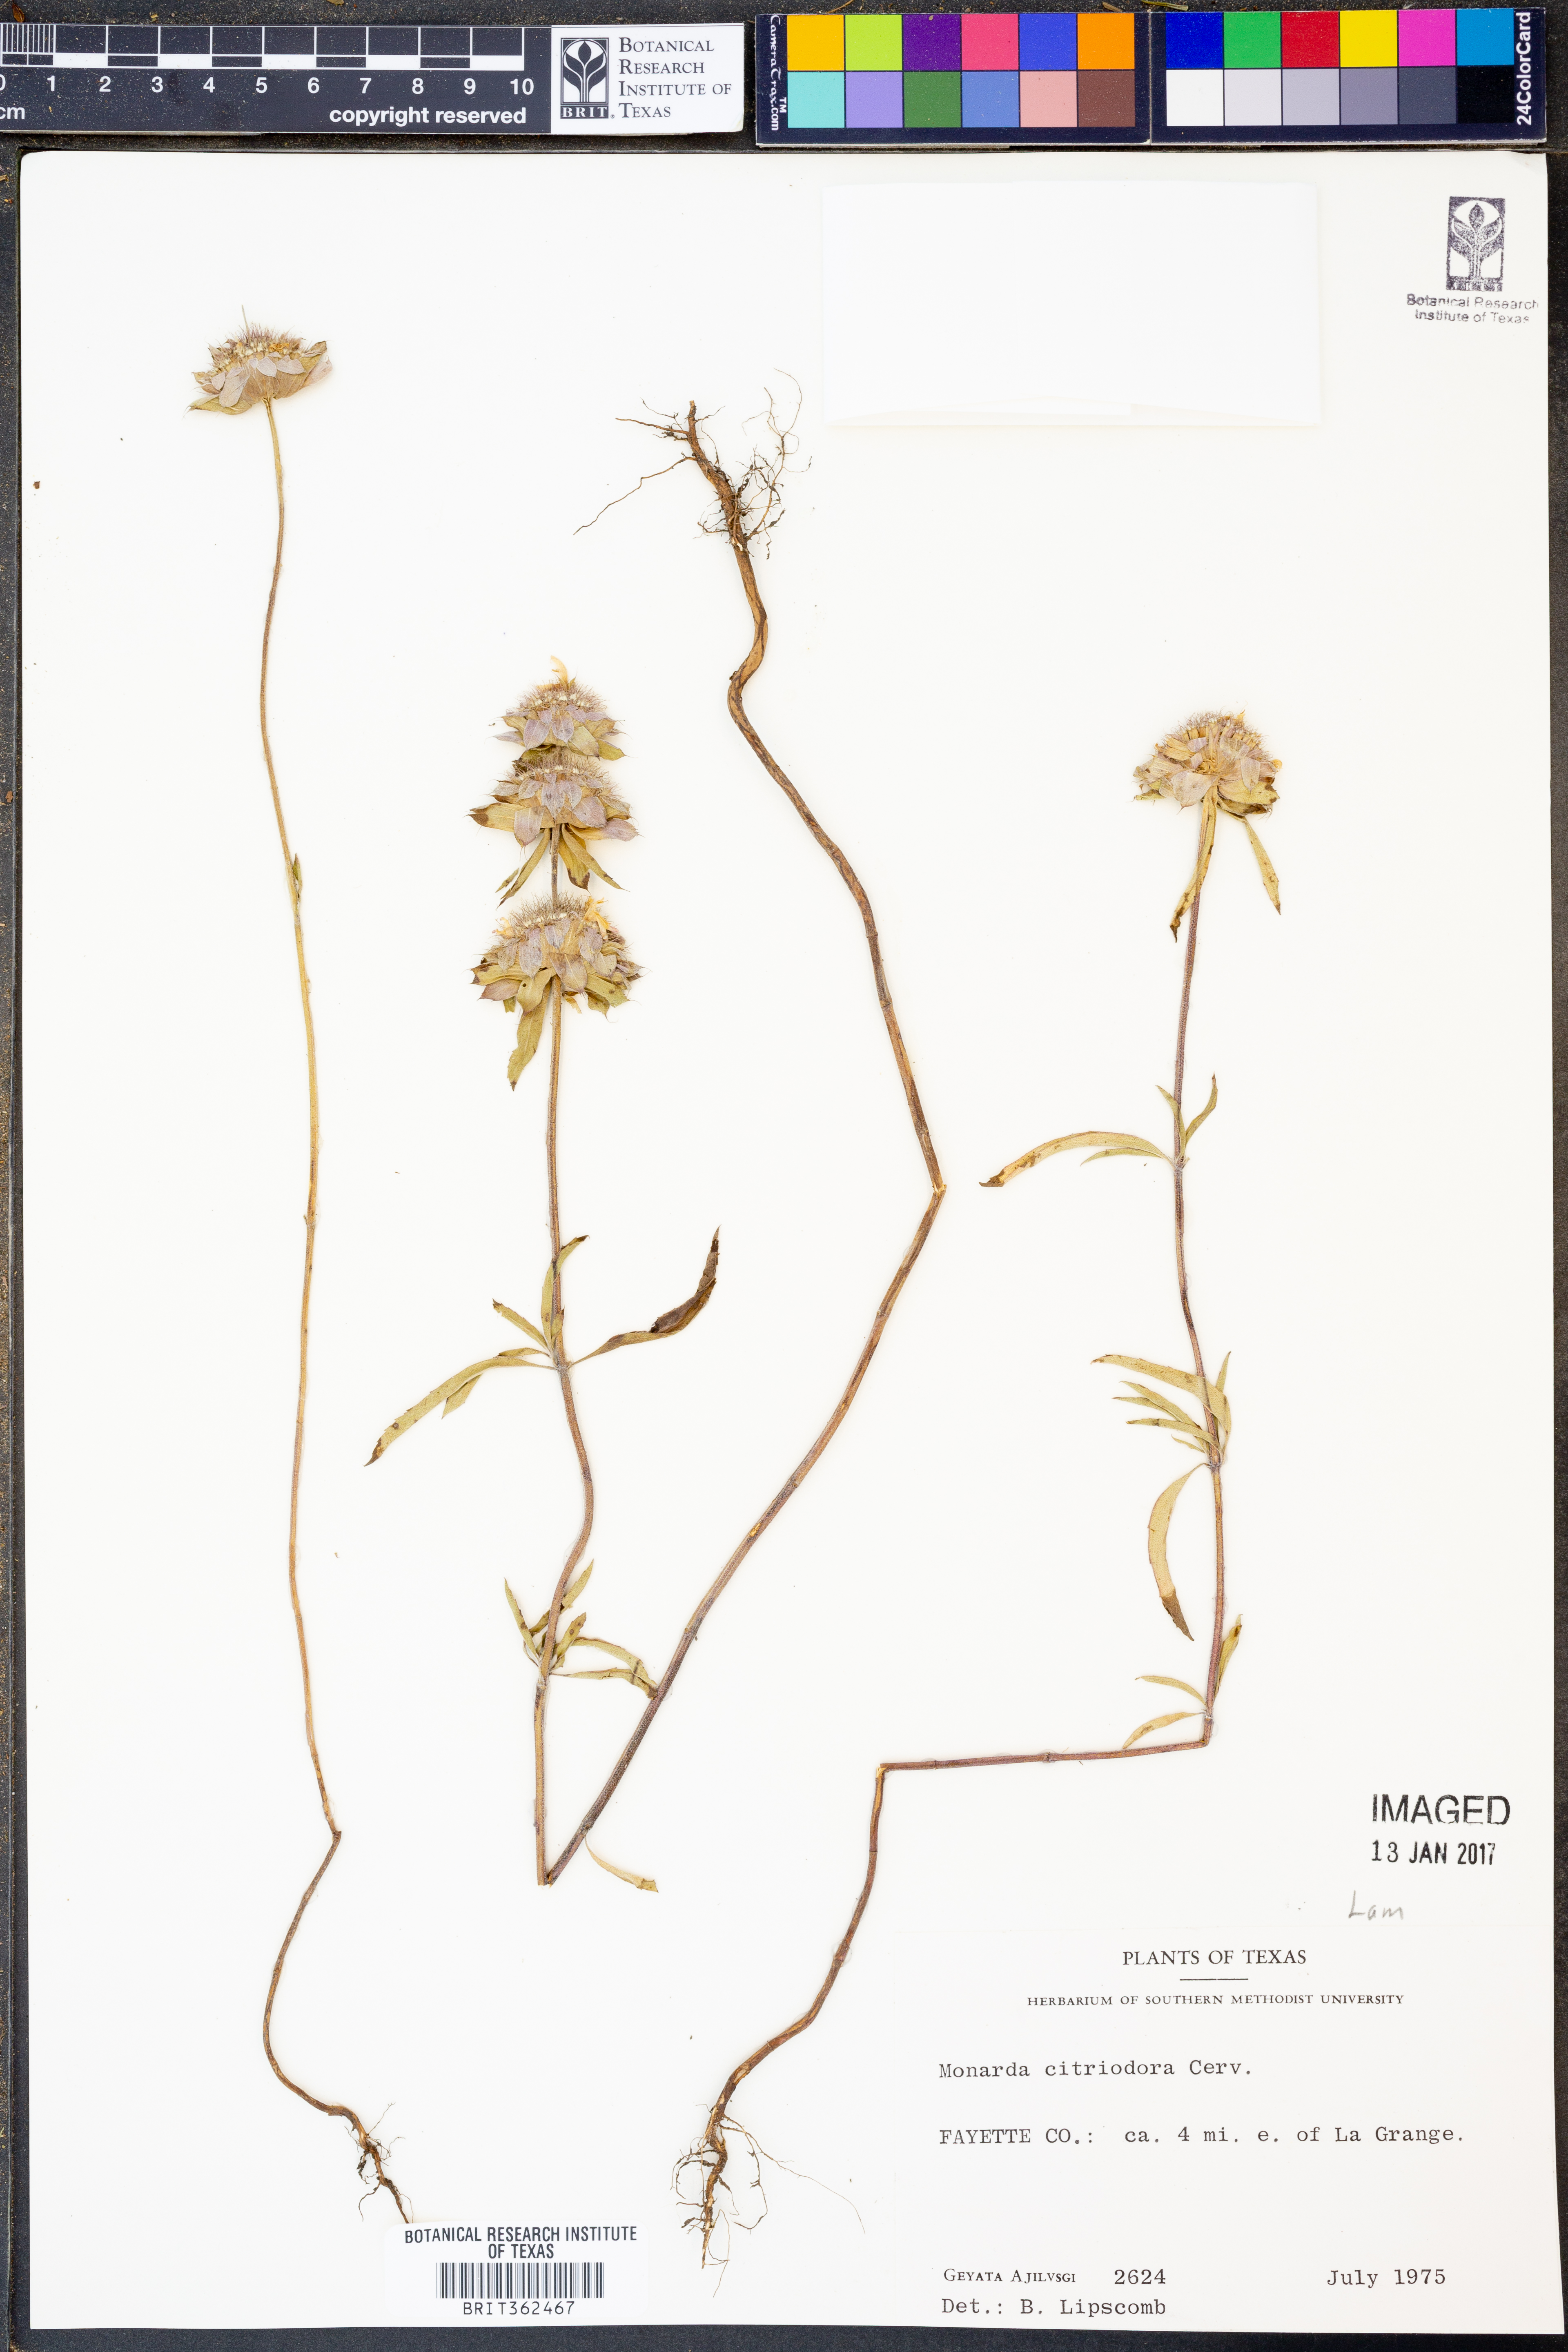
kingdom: Plantae
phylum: Tracheophyta
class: Magnoliopsida
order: Lamiales
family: Lamiaceae
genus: Monarda
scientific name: Monarda citriodora
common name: Lemon beebalm
